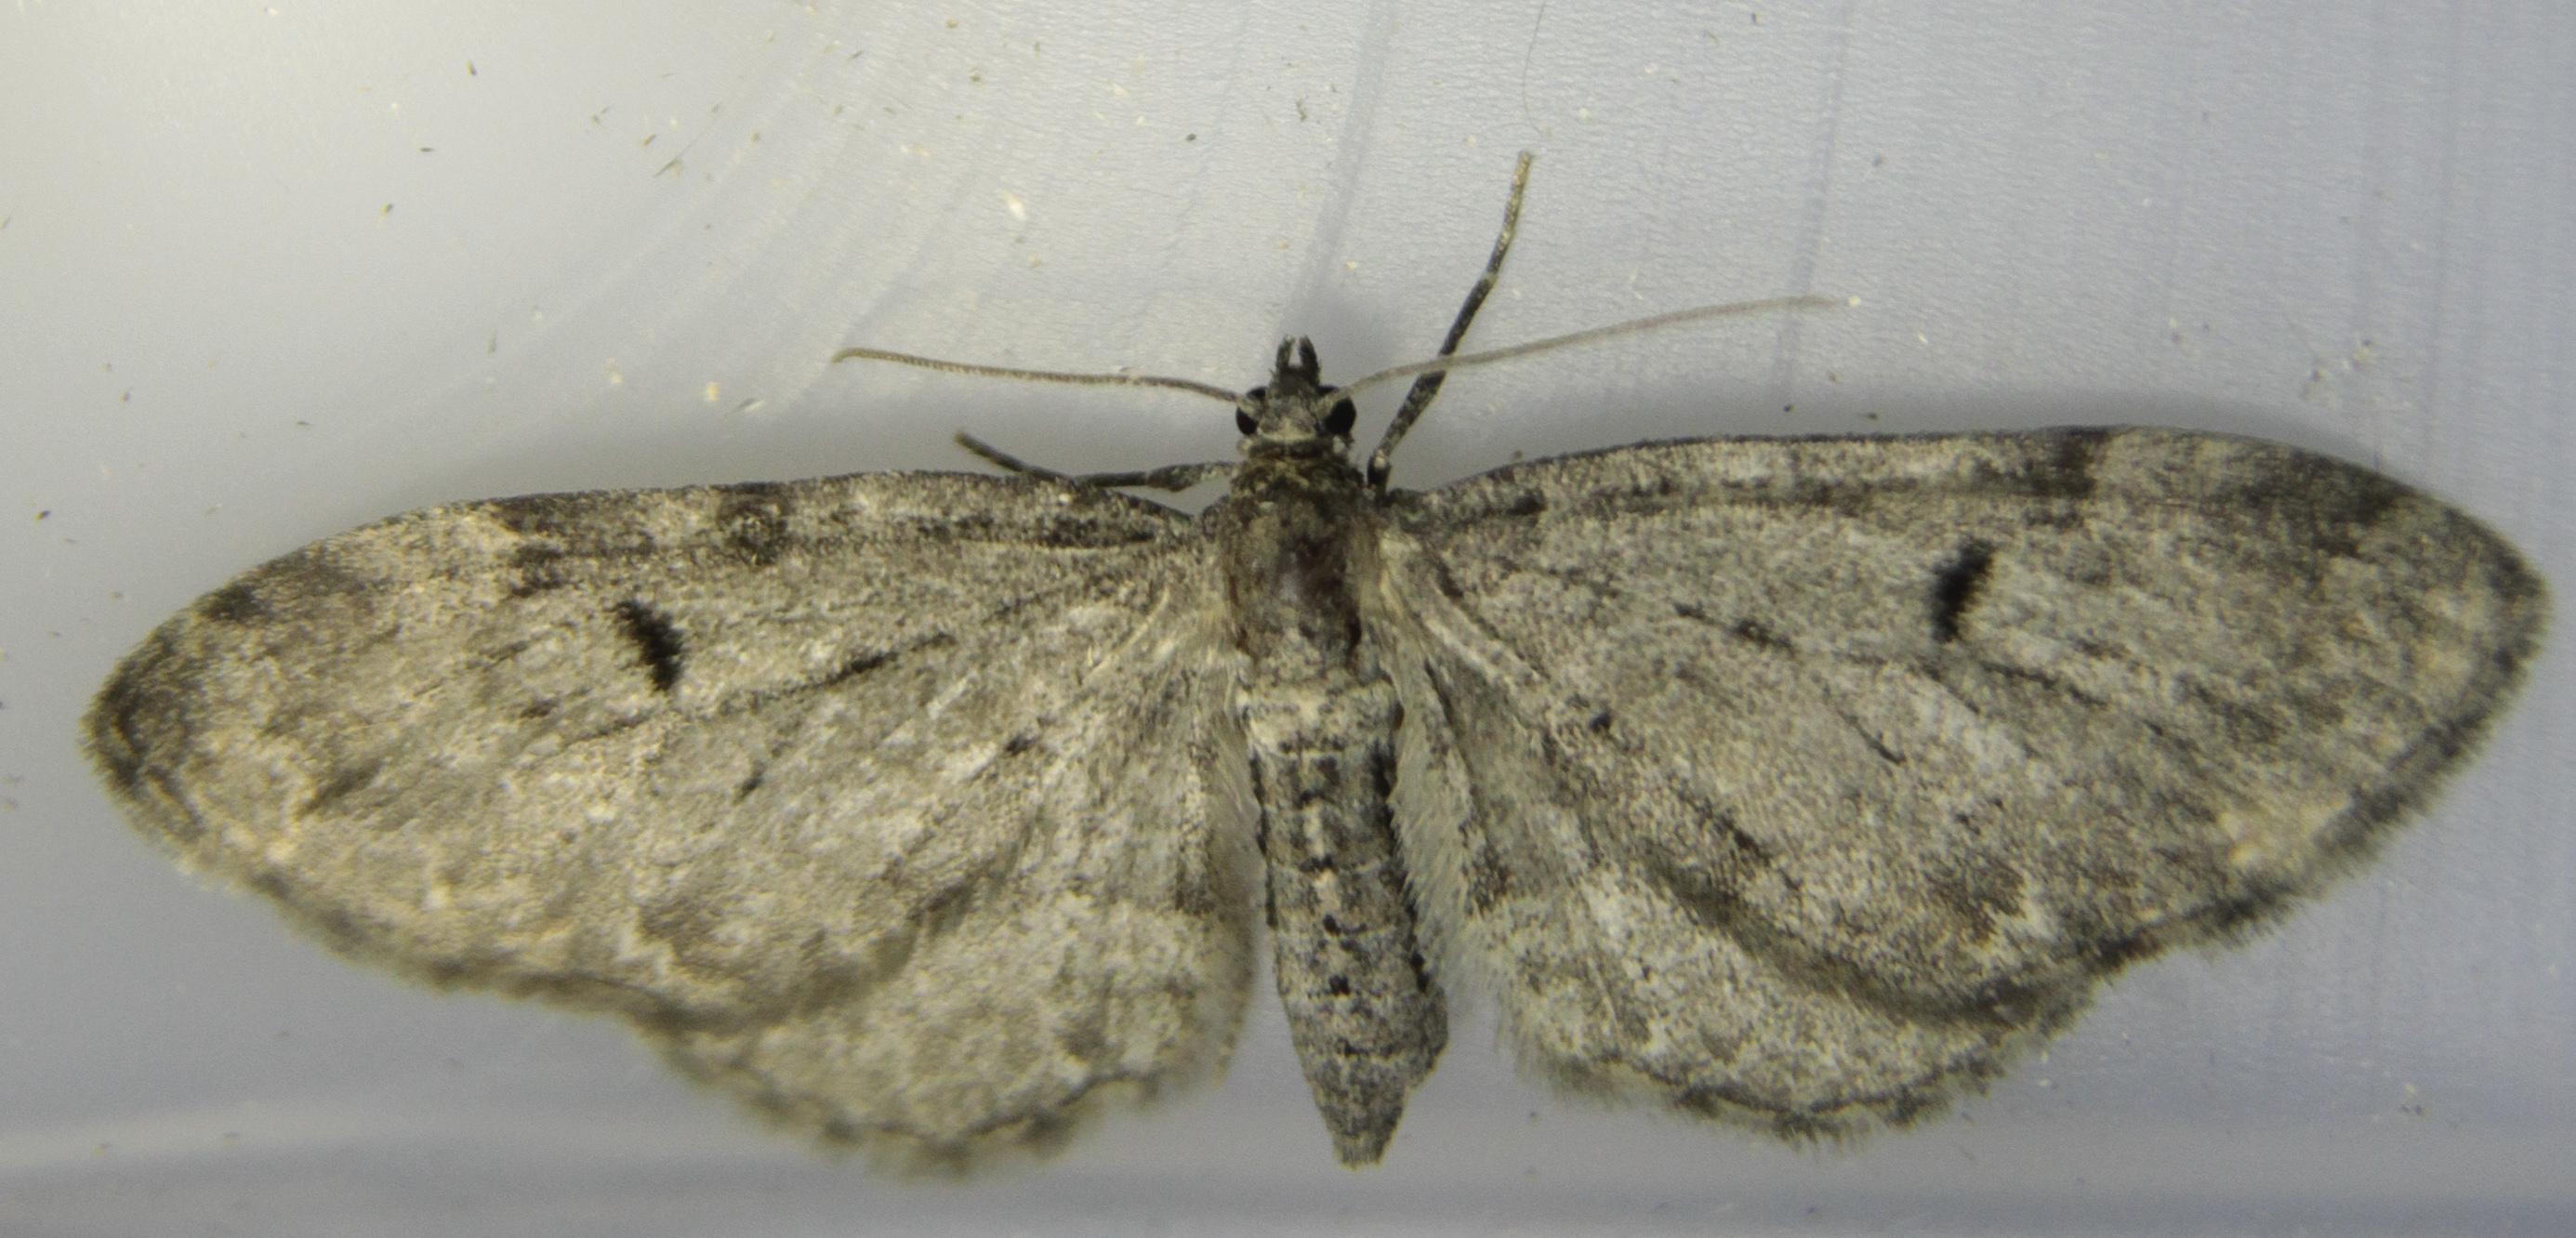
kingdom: Animalia
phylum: Arthropoda
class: Insecta
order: Lepidoptera
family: Geometridae
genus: Eupithecia
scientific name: Eupithecia virgaureata
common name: Golden-rod pug
